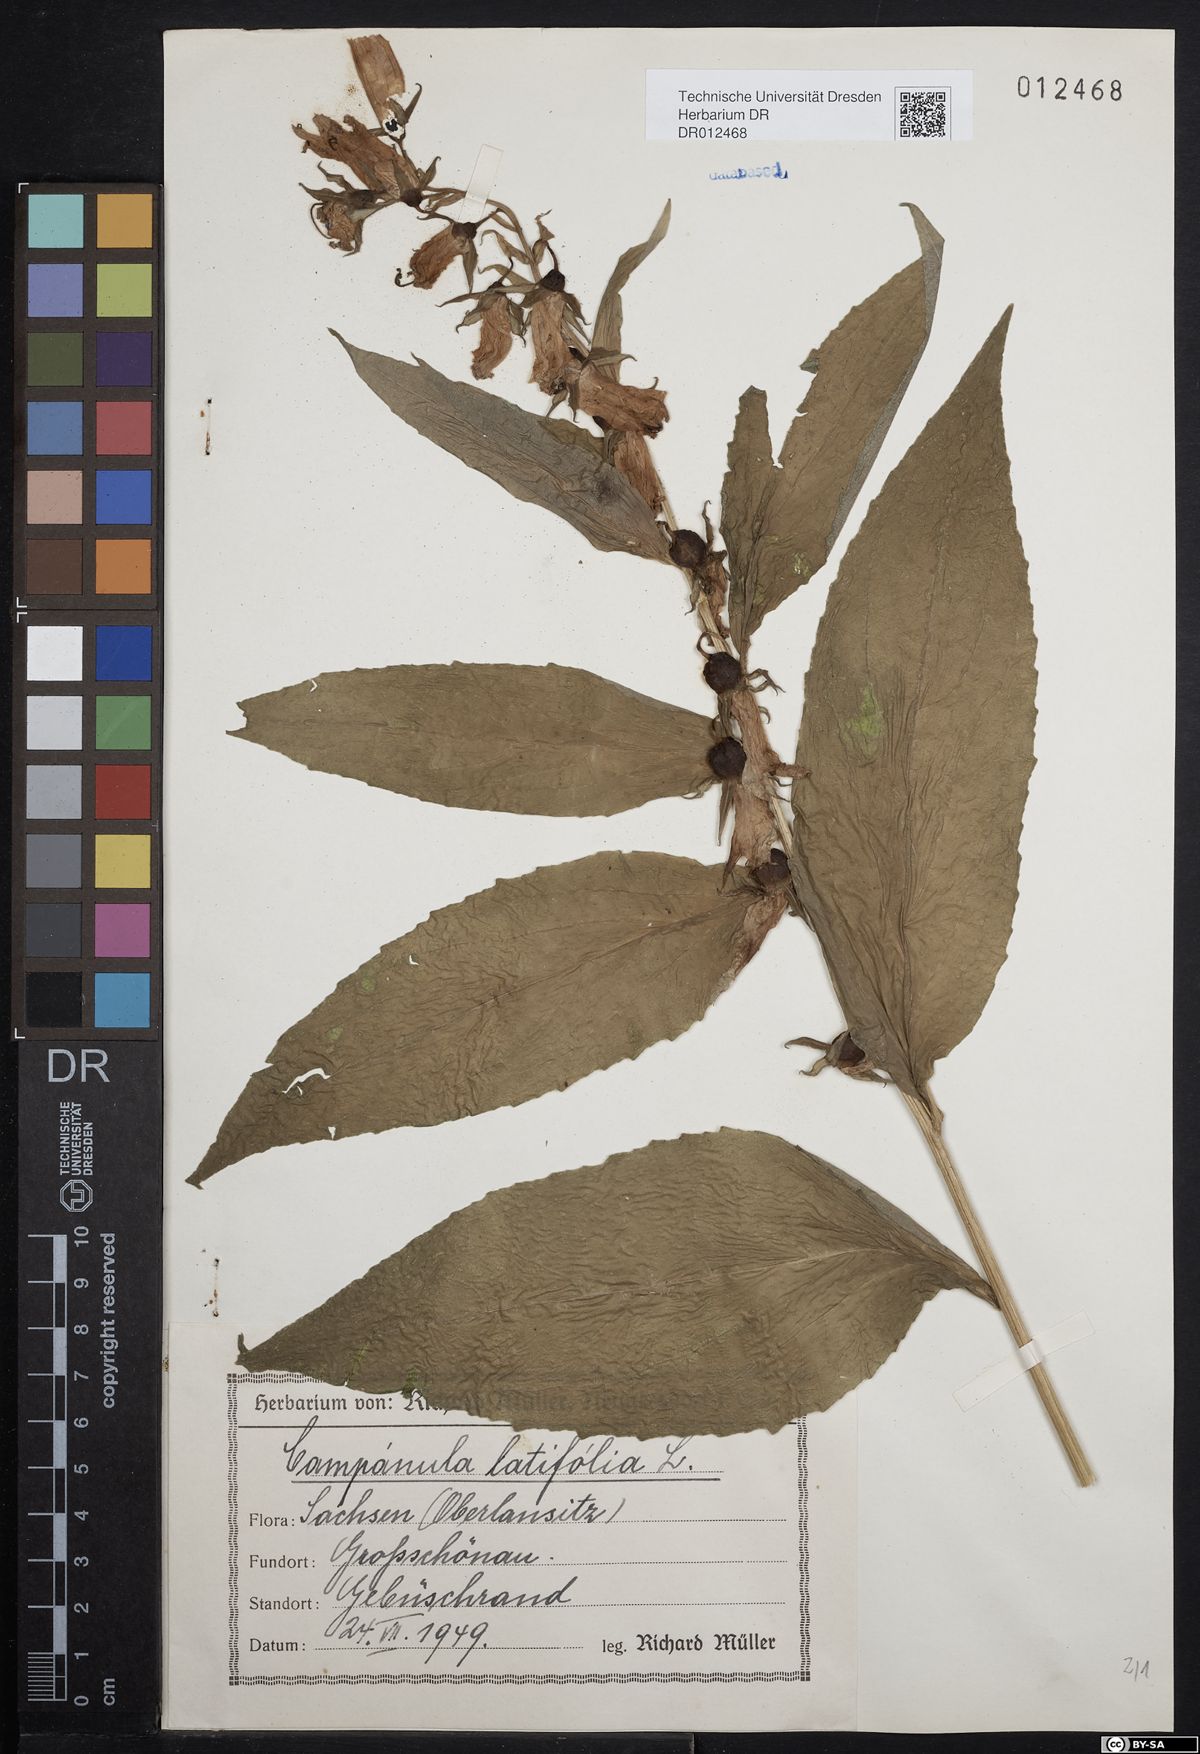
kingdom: Plantae
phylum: Tracheophyta
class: Magnoliopsida
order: Asterales
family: Campanulaceae
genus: Campanula
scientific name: Campanula latifolia
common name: Giant bellflower
